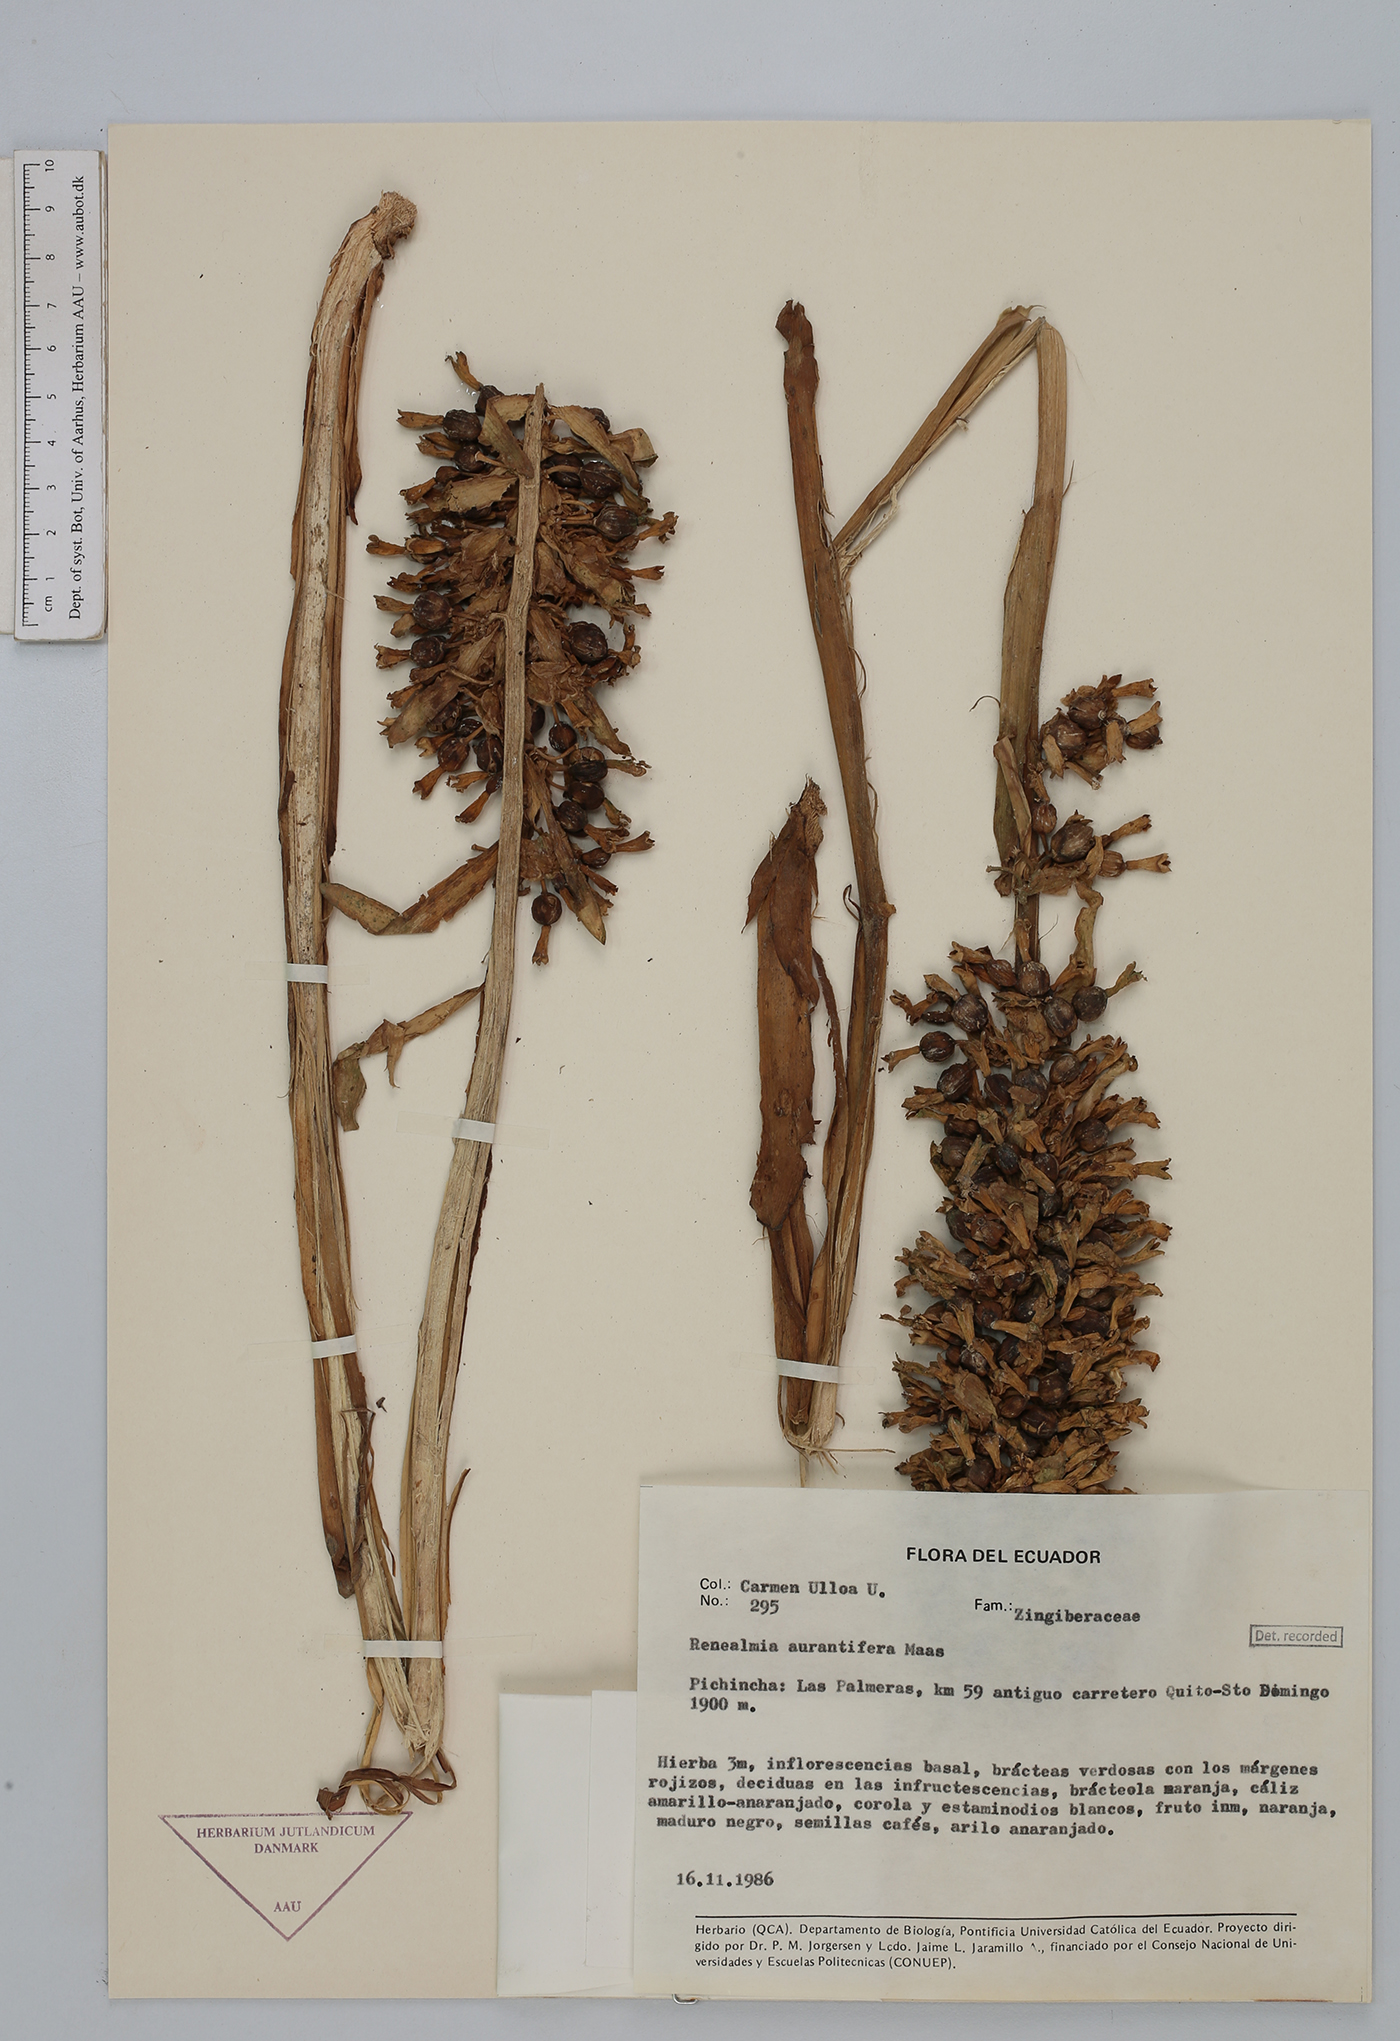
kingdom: Plantae
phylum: Tracheophyta
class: Liliopsida
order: Zingiberales
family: Zingiberaceae
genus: Renealmia
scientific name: Renealmia aurantiifera
